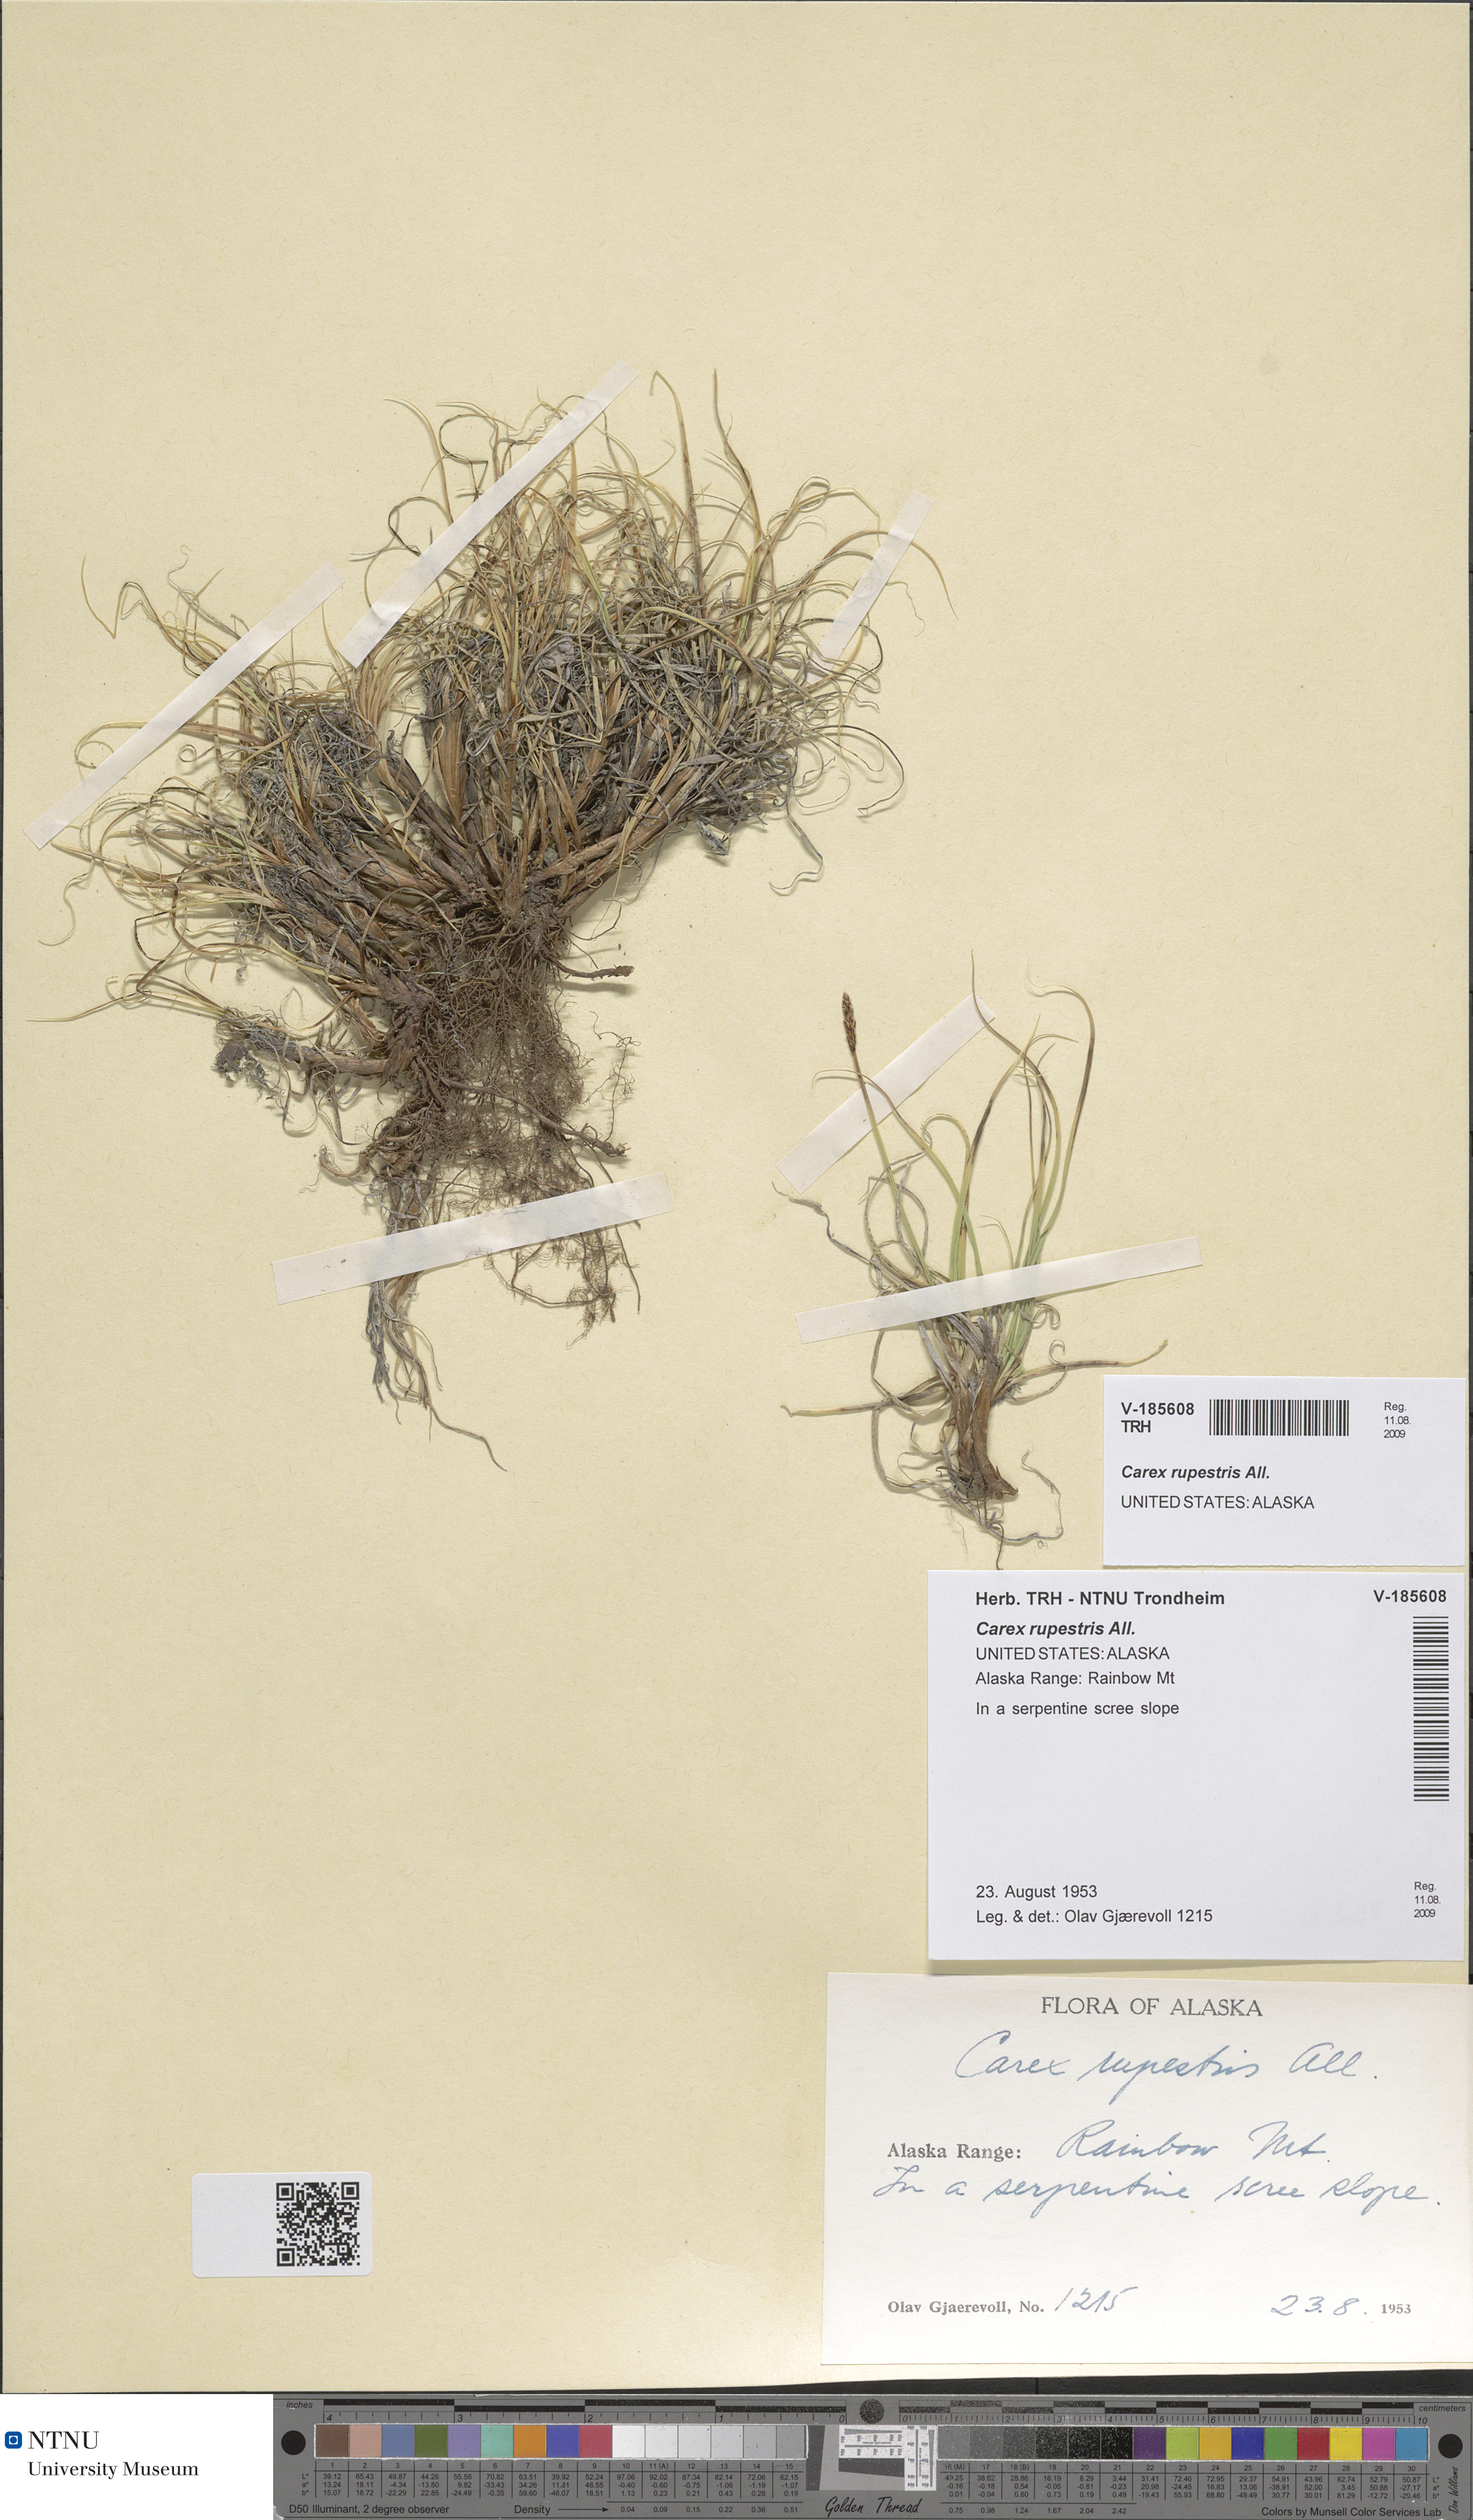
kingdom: Plantae
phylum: Tracheophyta
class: Liliopsida
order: Poales
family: Cyperaceae
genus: Carex
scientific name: Carex rupestris
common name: Rock sedge
